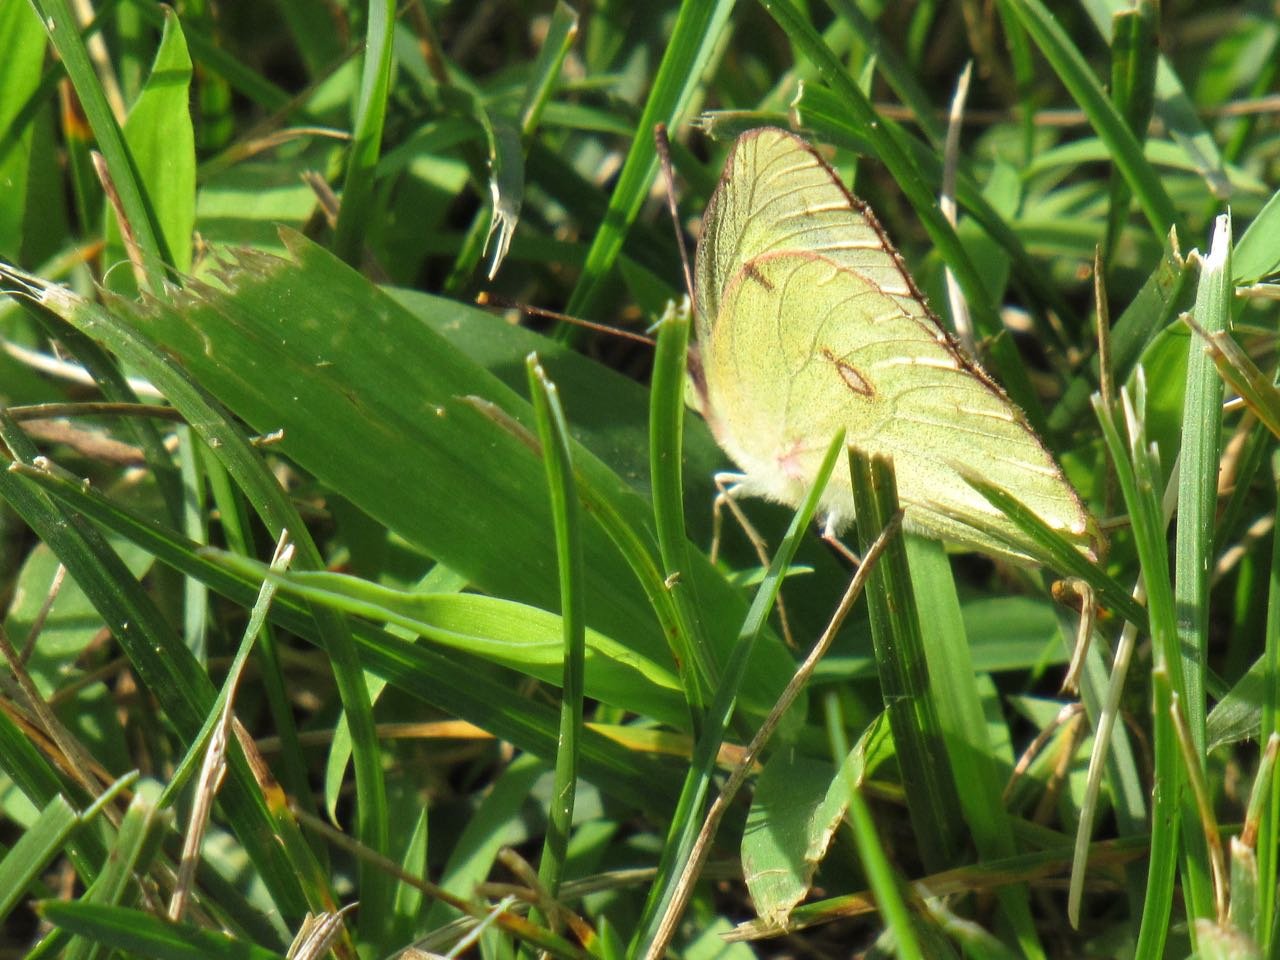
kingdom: Animalia
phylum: Arthropoda
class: Insecta
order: Lepidoptera
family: Pieridae
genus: Colias
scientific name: Colias philodice
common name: Clouded Sulphur
